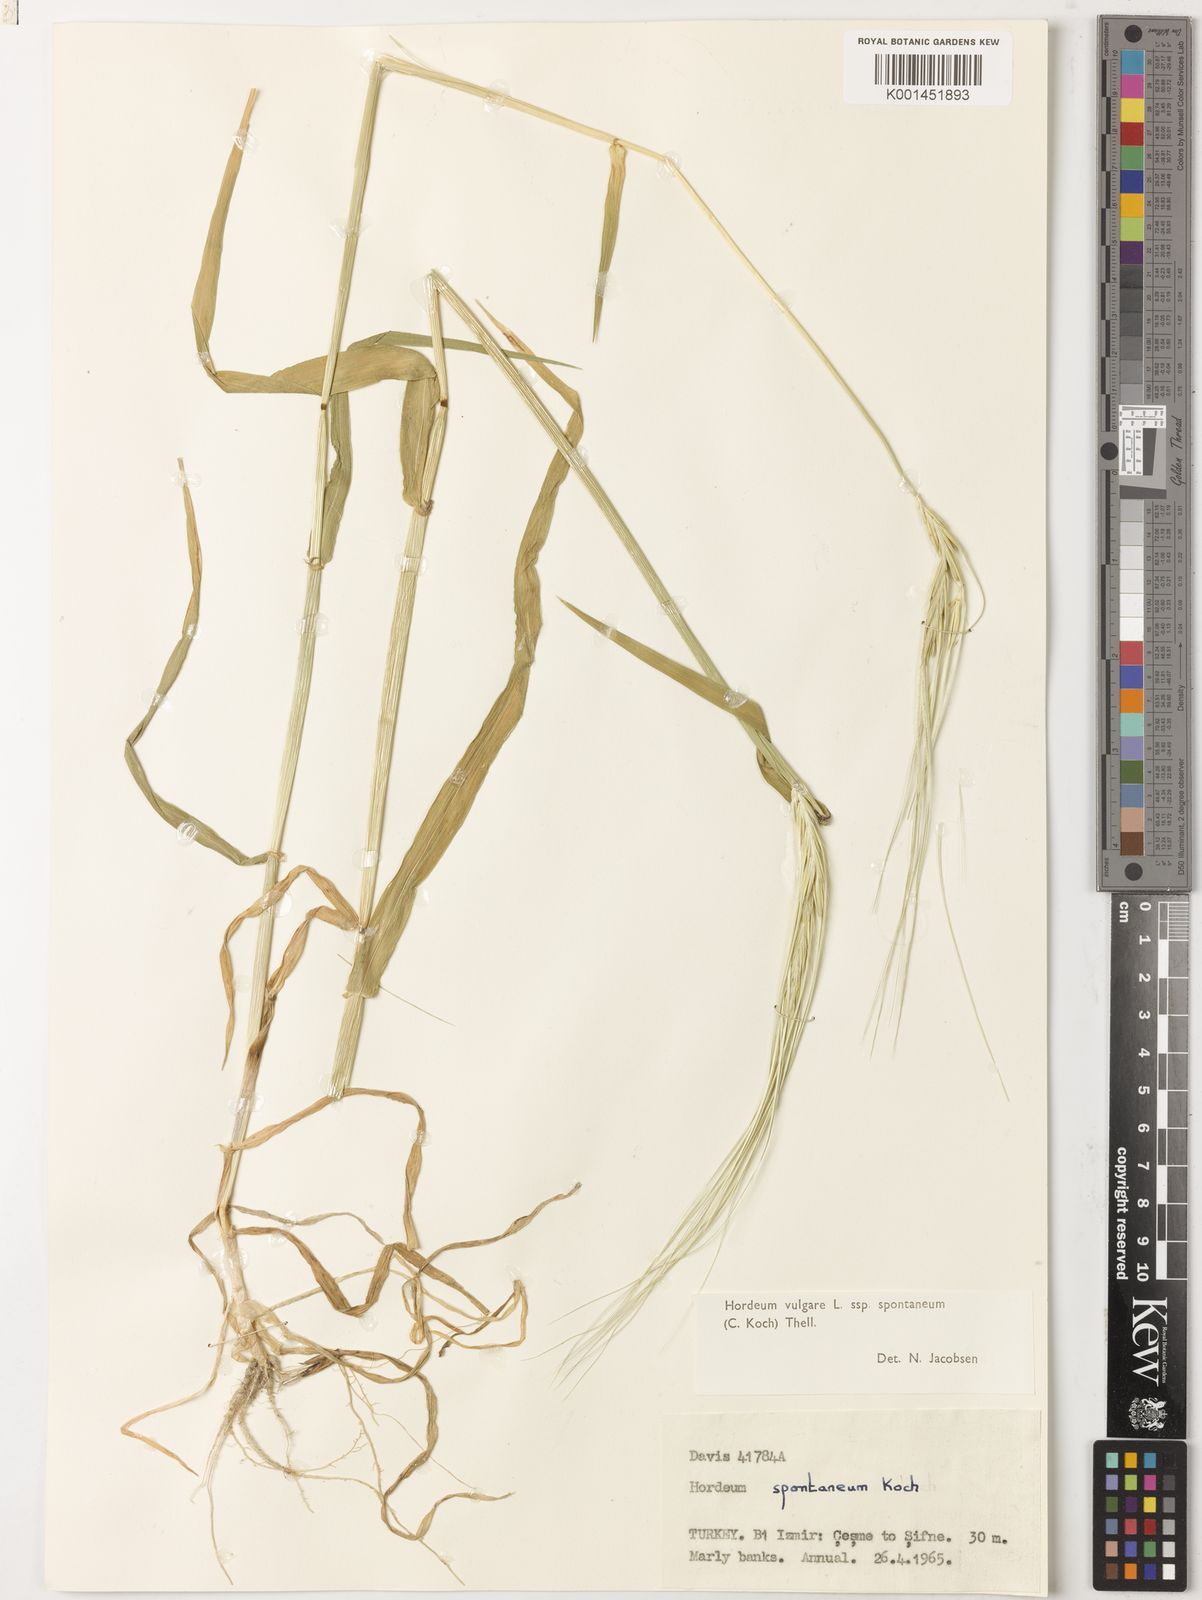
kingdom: Plantae
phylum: Tracheophyta
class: Liliopsida
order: Poales
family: Poaceae
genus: Hordeum
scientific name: Hordeum spontaneum
